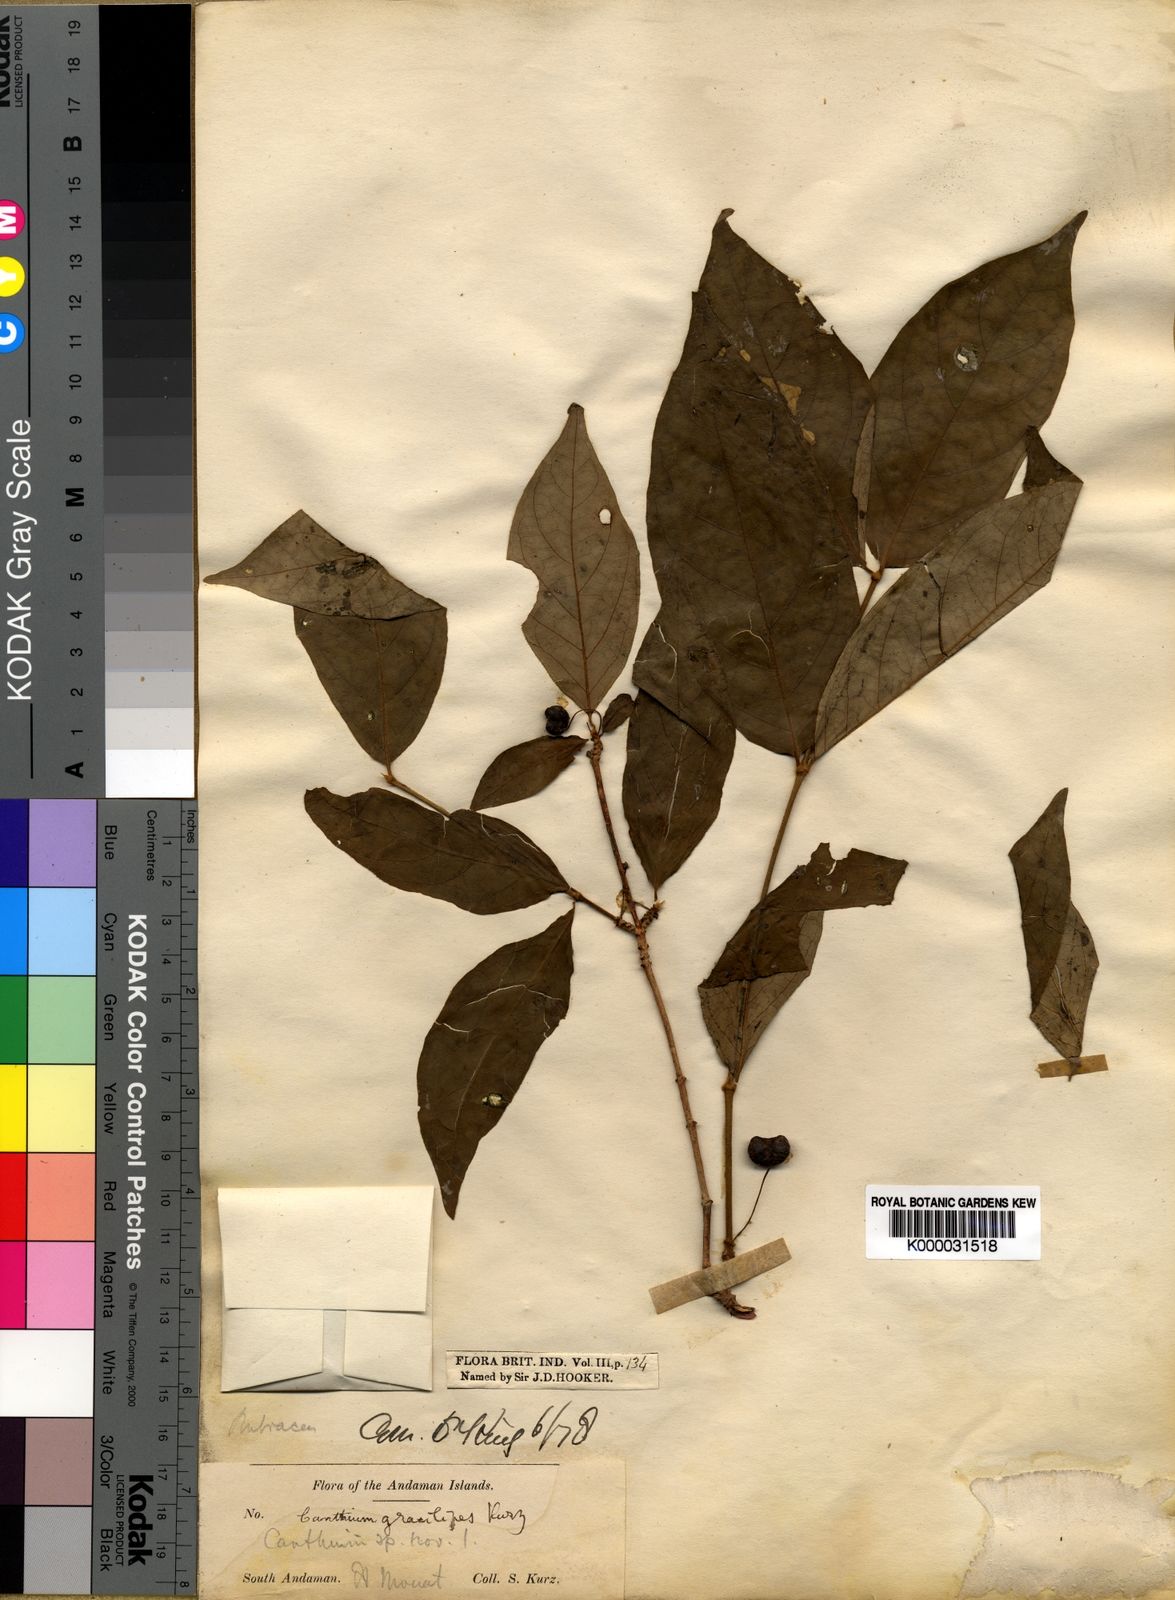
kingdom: Plantae
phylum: Tracheophyta
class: Magnoliopsida
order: Gentianales
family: Rubiaceae
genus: Canthium
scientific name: Canthium gracilipes
